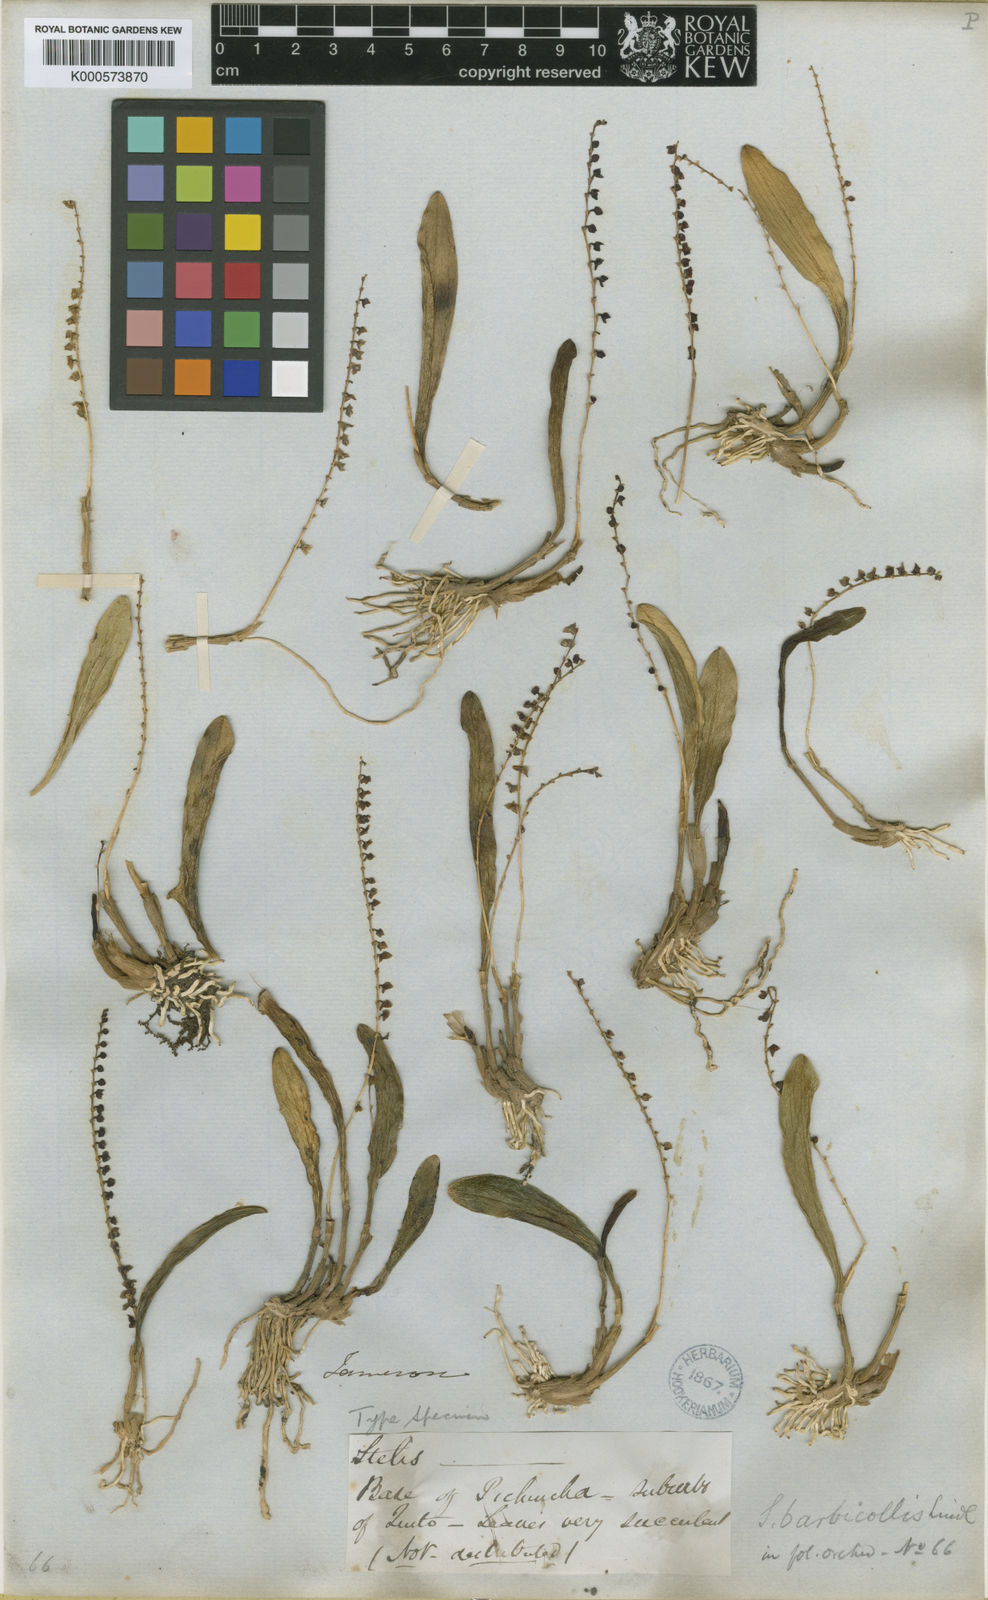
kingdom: Plantae
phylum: Tracheophyta
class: Liliopsida
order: Asparagales
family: Orchidaceae
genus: Stelis
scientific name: Stelis discolor
